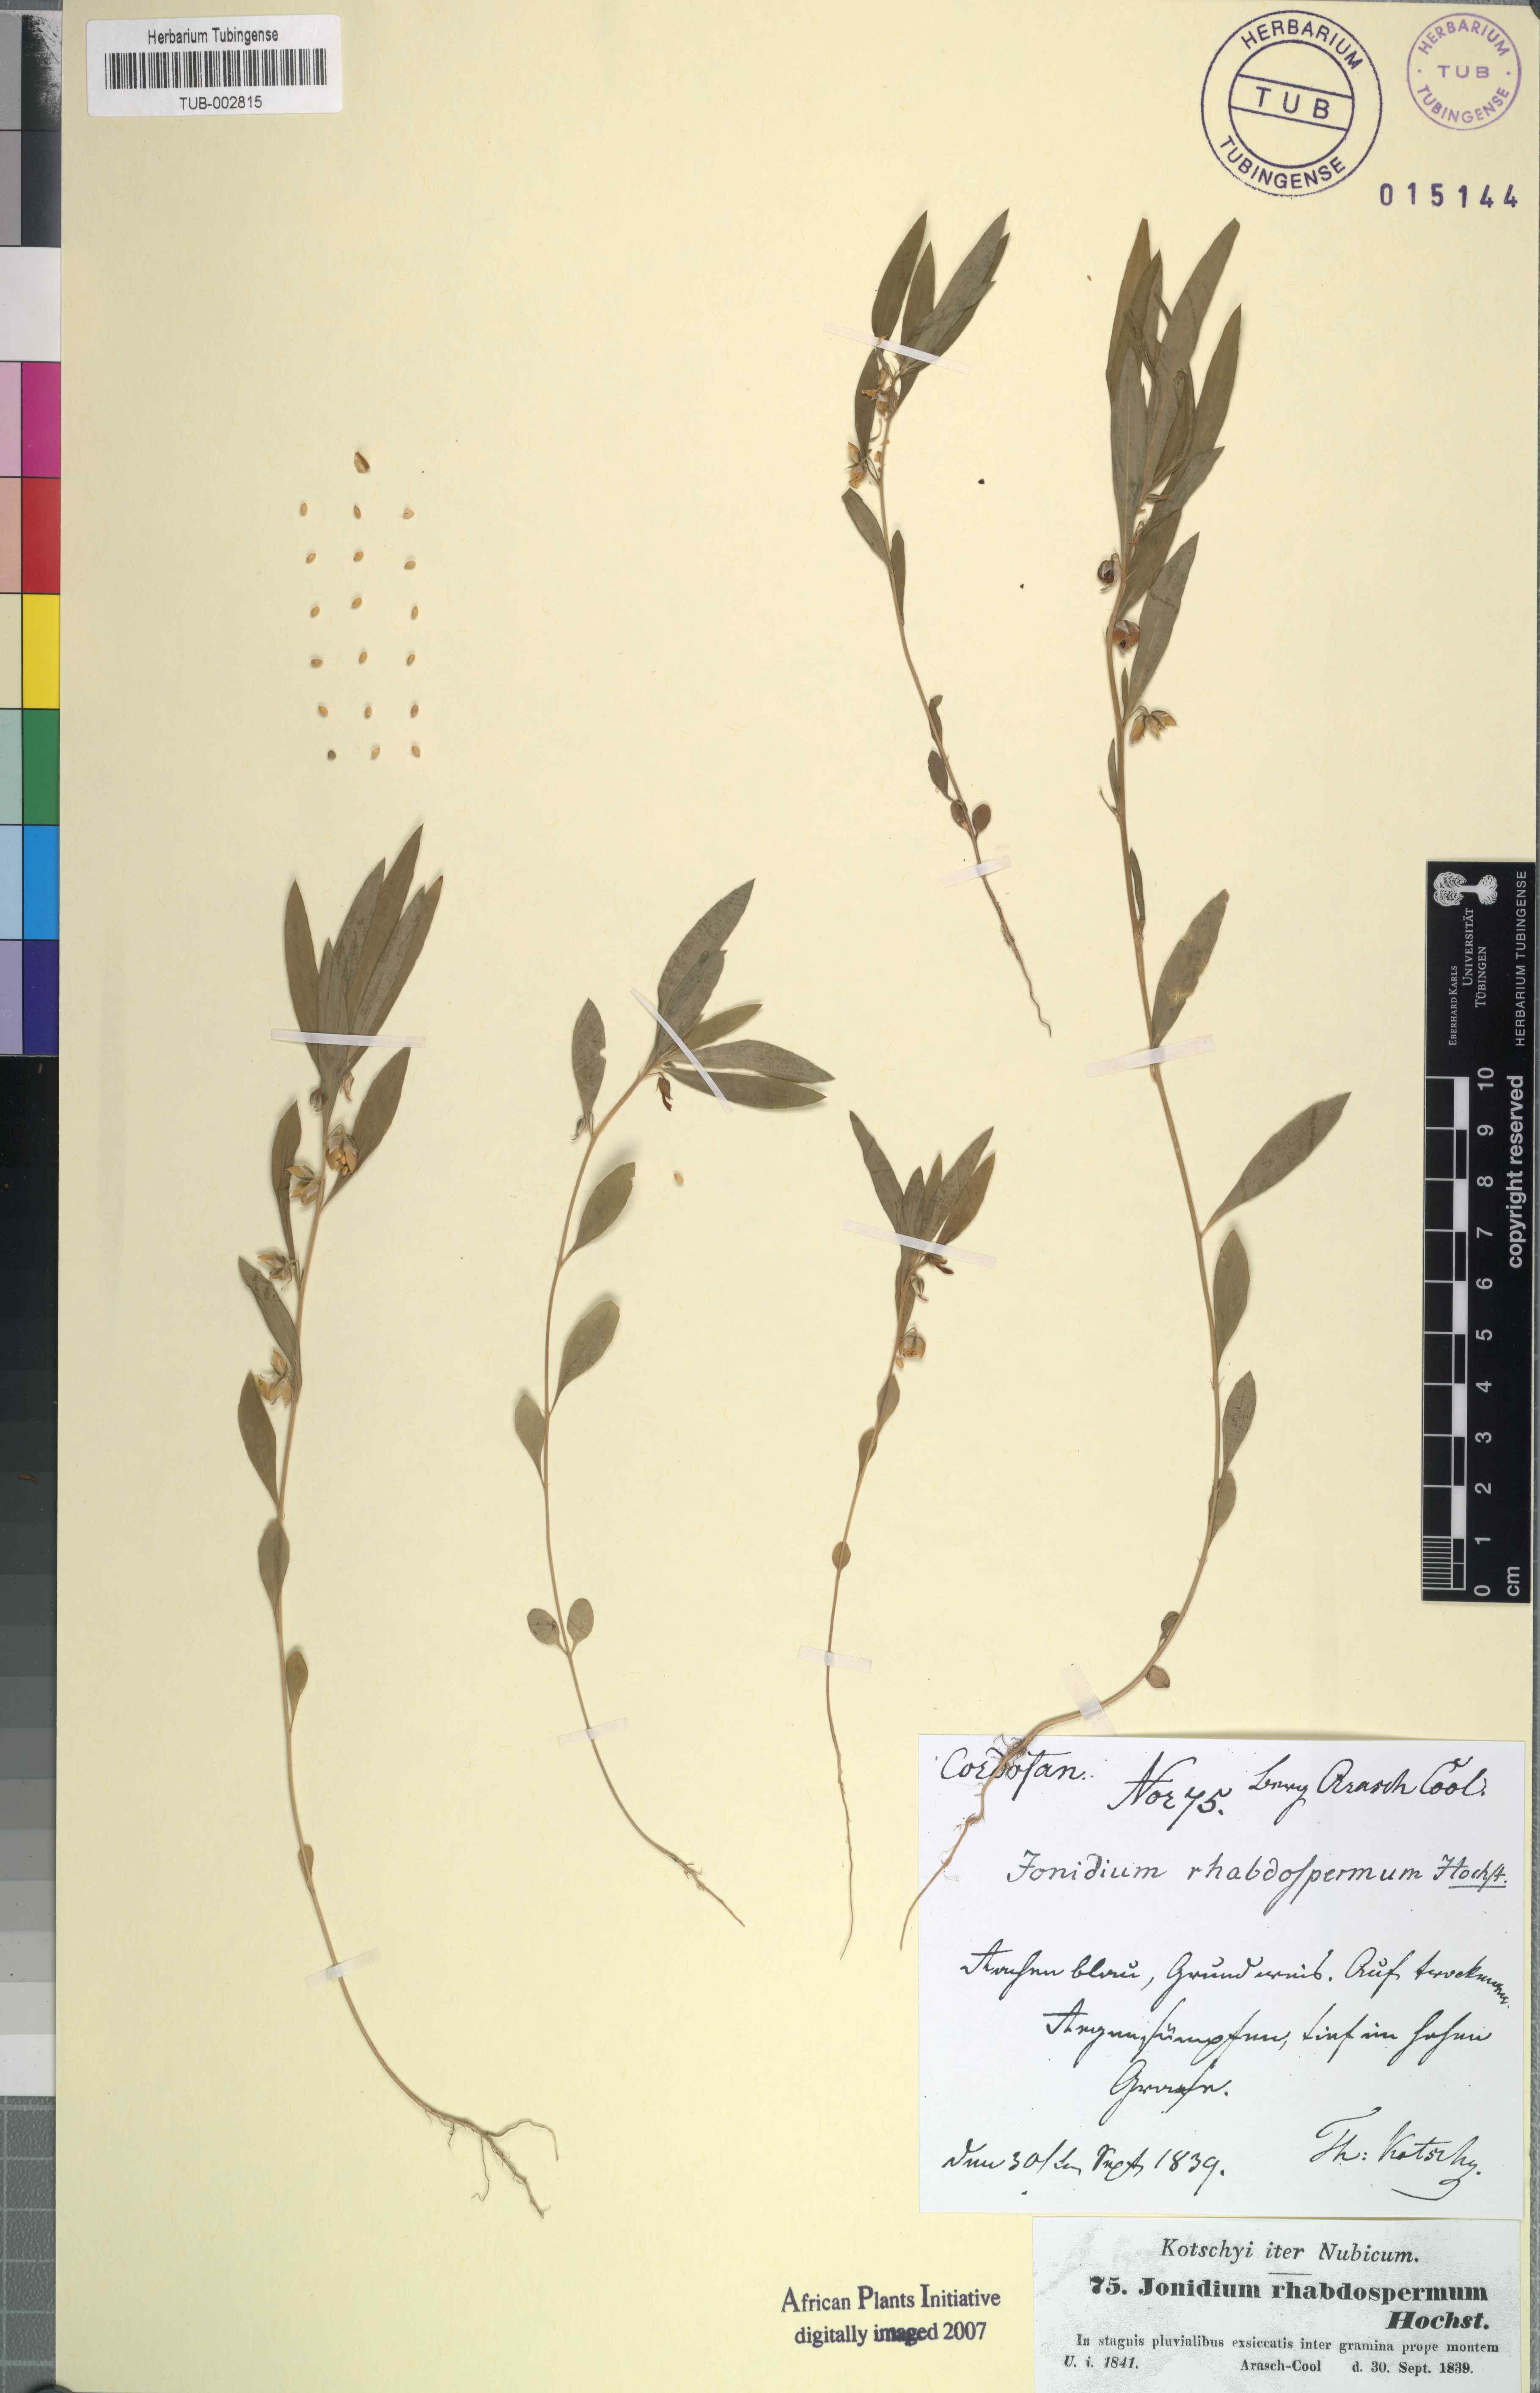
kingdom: Plantae
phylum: Tracheophyta
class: Magnoliopsida
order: Malpighiales
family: Violaceae
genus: Pigea
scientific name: Pigea enneasperma
